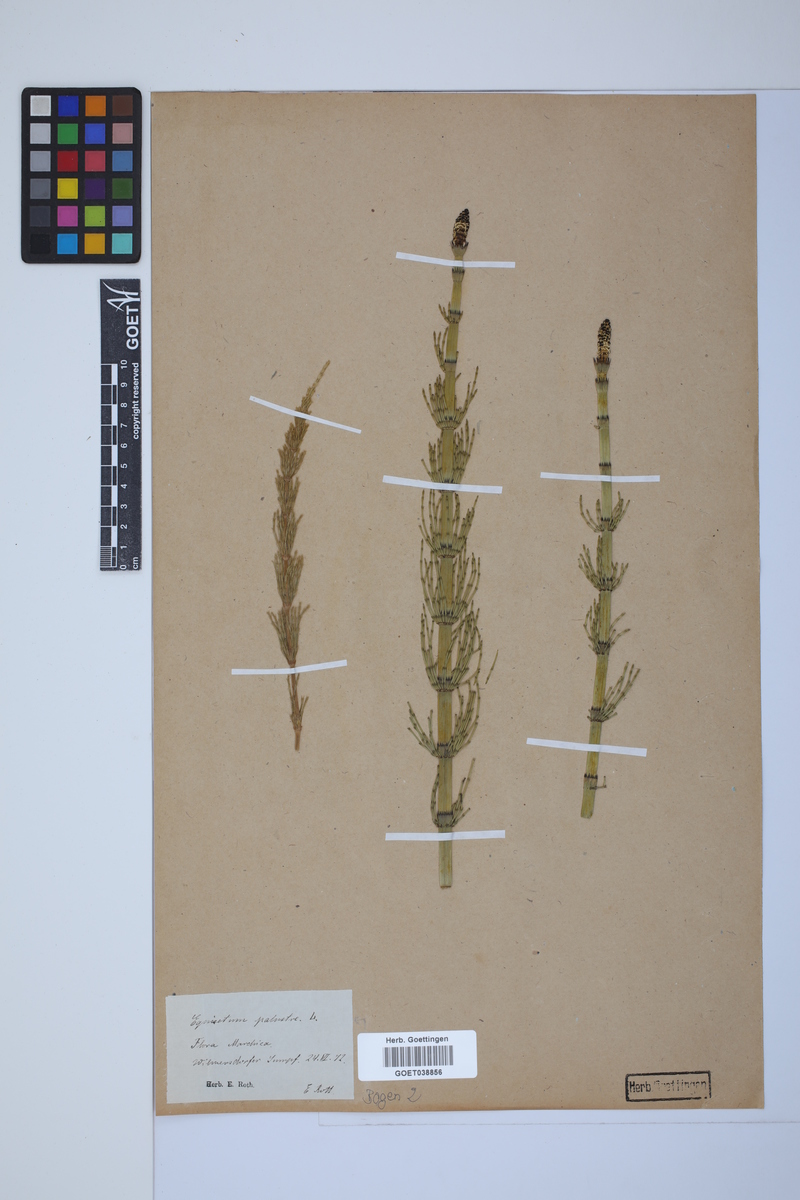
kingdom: Plantae
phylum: Tracheophyta
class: Polypodiopsida
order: Equisetales
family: Equisetaceae
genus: Equisetum
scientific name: Equisetum palustre
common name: Marsh horsetail
